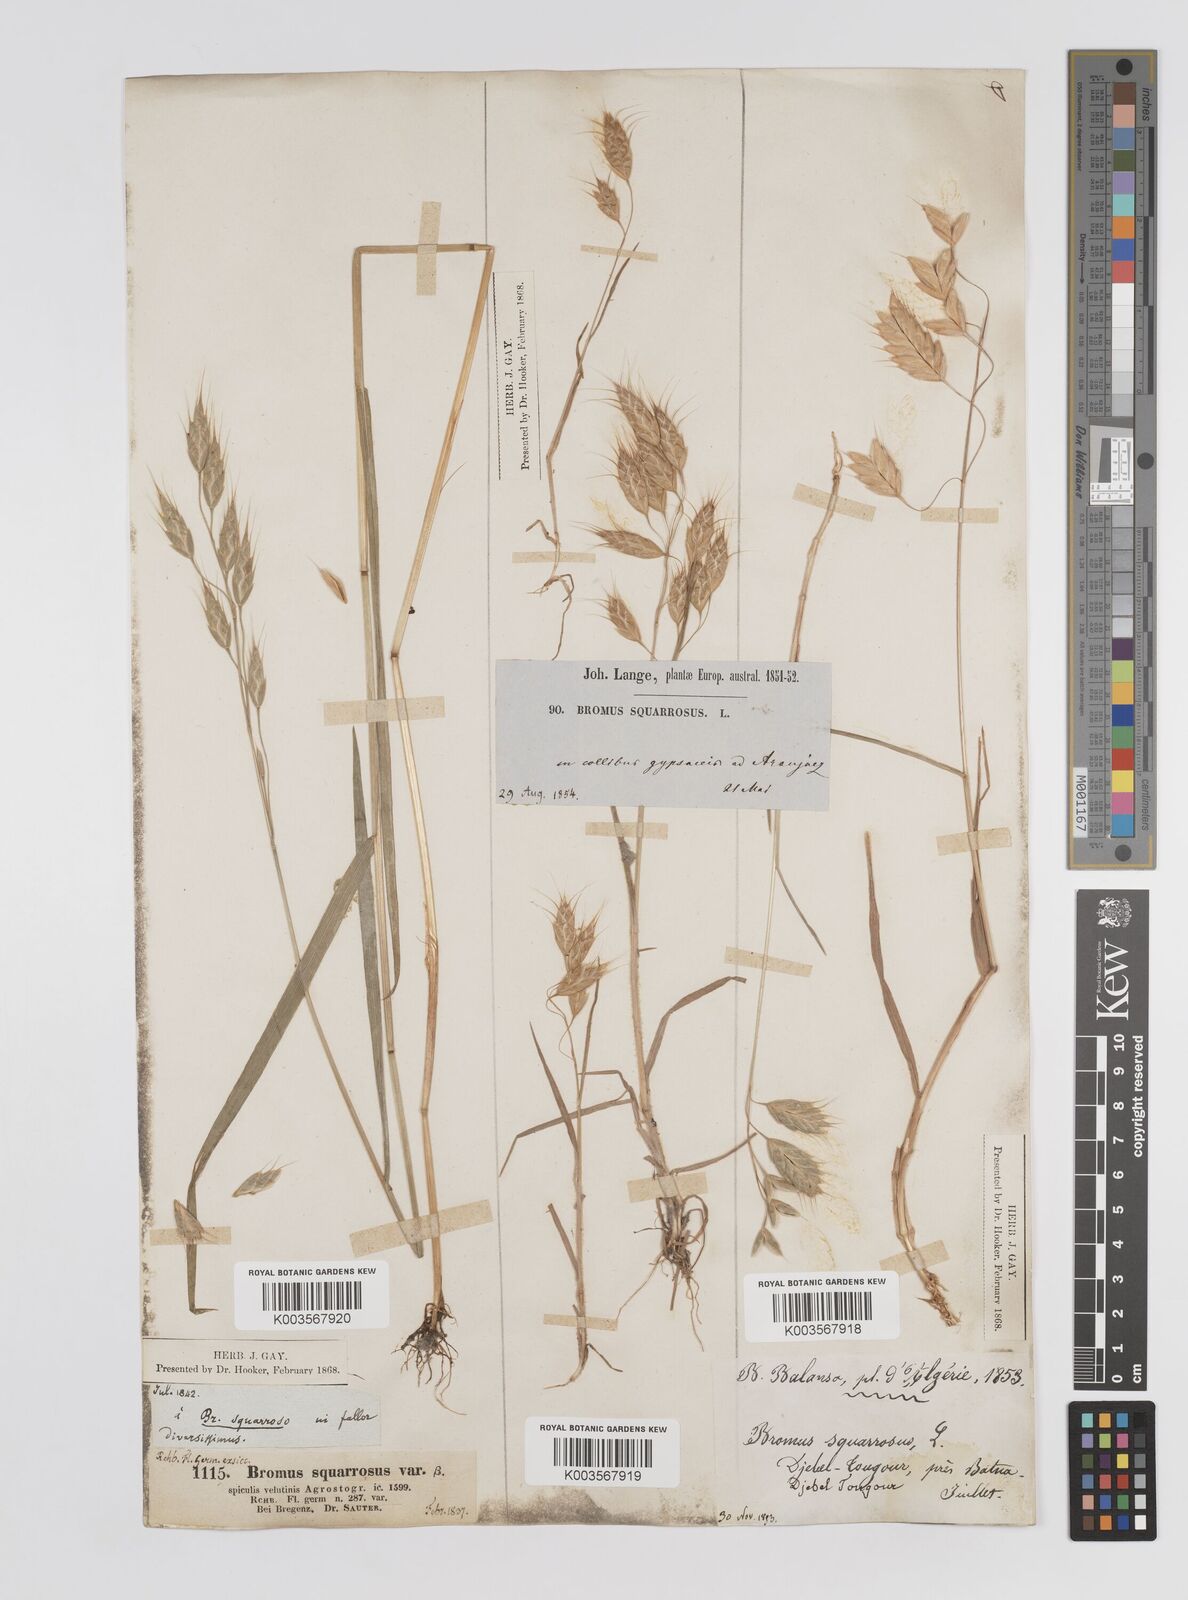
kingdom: Plantae
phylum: Tracheophyta
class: Liliopsida
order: Poales
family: Poaceae
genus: Bromus
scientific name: Bromus squarrosus
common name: Corn brome
